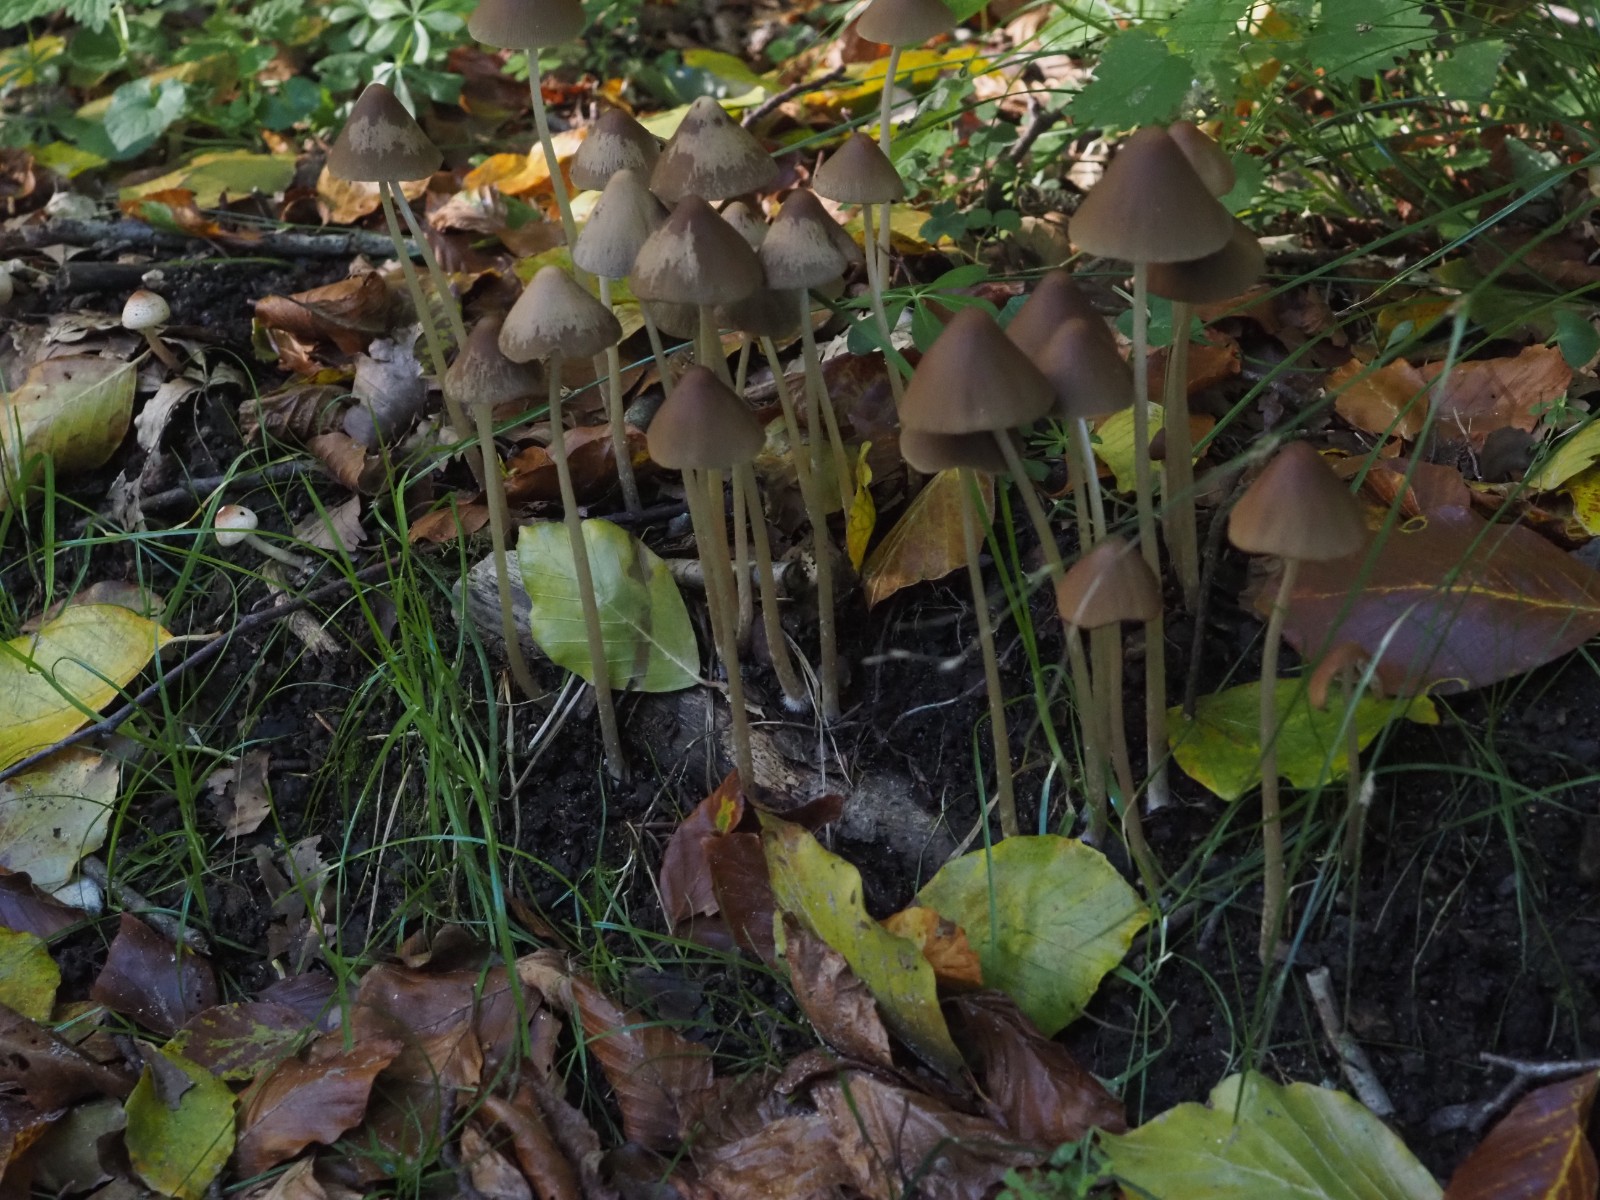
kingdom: Fungi
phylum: Basidiomycota
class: Agaricomycetes
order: Agaricales
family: Psathyrellaceae
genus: Parasola
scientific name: Parasola conopilea
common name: kegle-hjulhat
